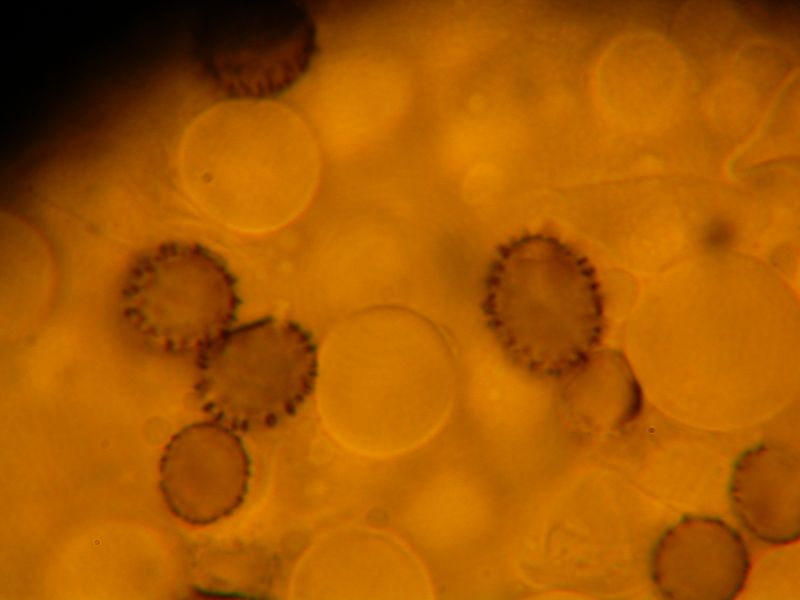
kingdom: Fungi
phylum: Basidiomycota
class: Agaricomycetes
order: Russulales
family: Russulaceae
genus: Russula
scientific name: Russula nitida
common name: året skørhat
